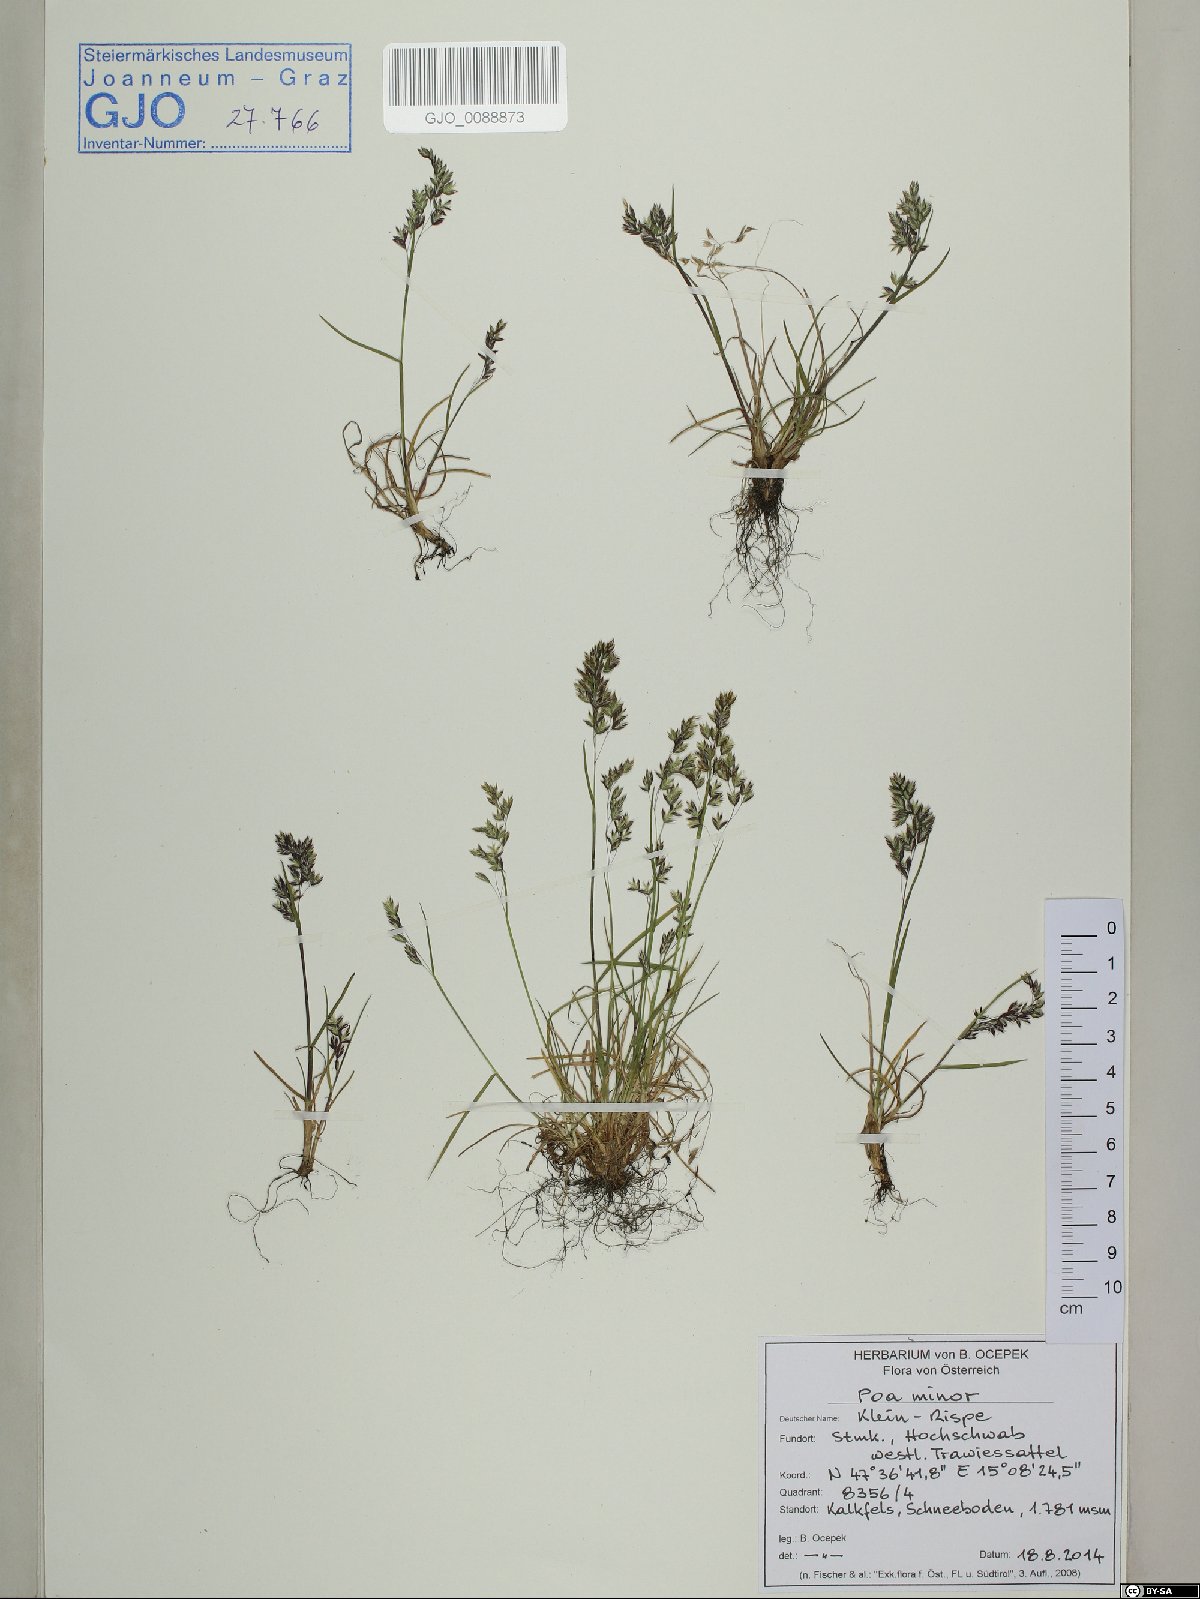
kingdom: Plantae
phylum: Tracheophyta
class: Liliopsida
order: Poales
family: Poaceae
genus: Poa
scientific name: Poa minor
